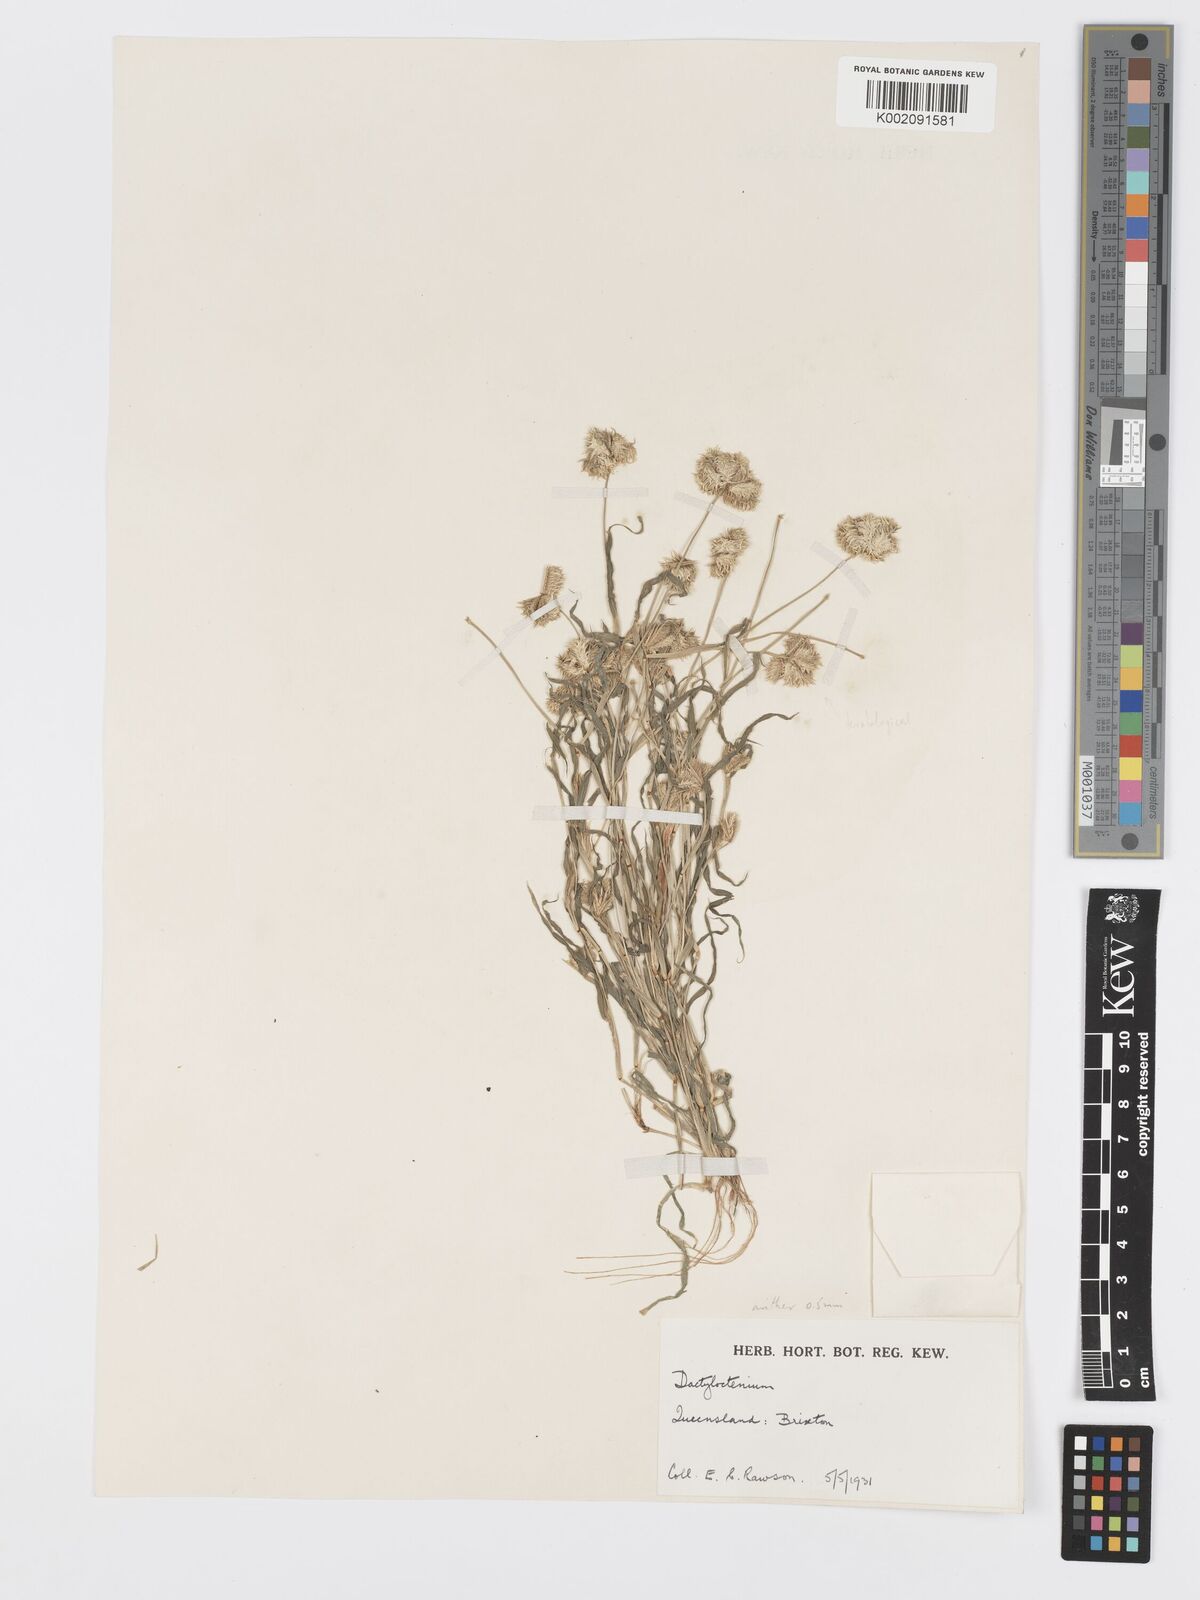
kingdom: Plantae
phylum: Tracheophyta
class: Liliopsida
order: Poales
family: Poaceae
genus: Dactyloctenium
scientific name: Dactyloctenium radulans
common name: Button-grass
